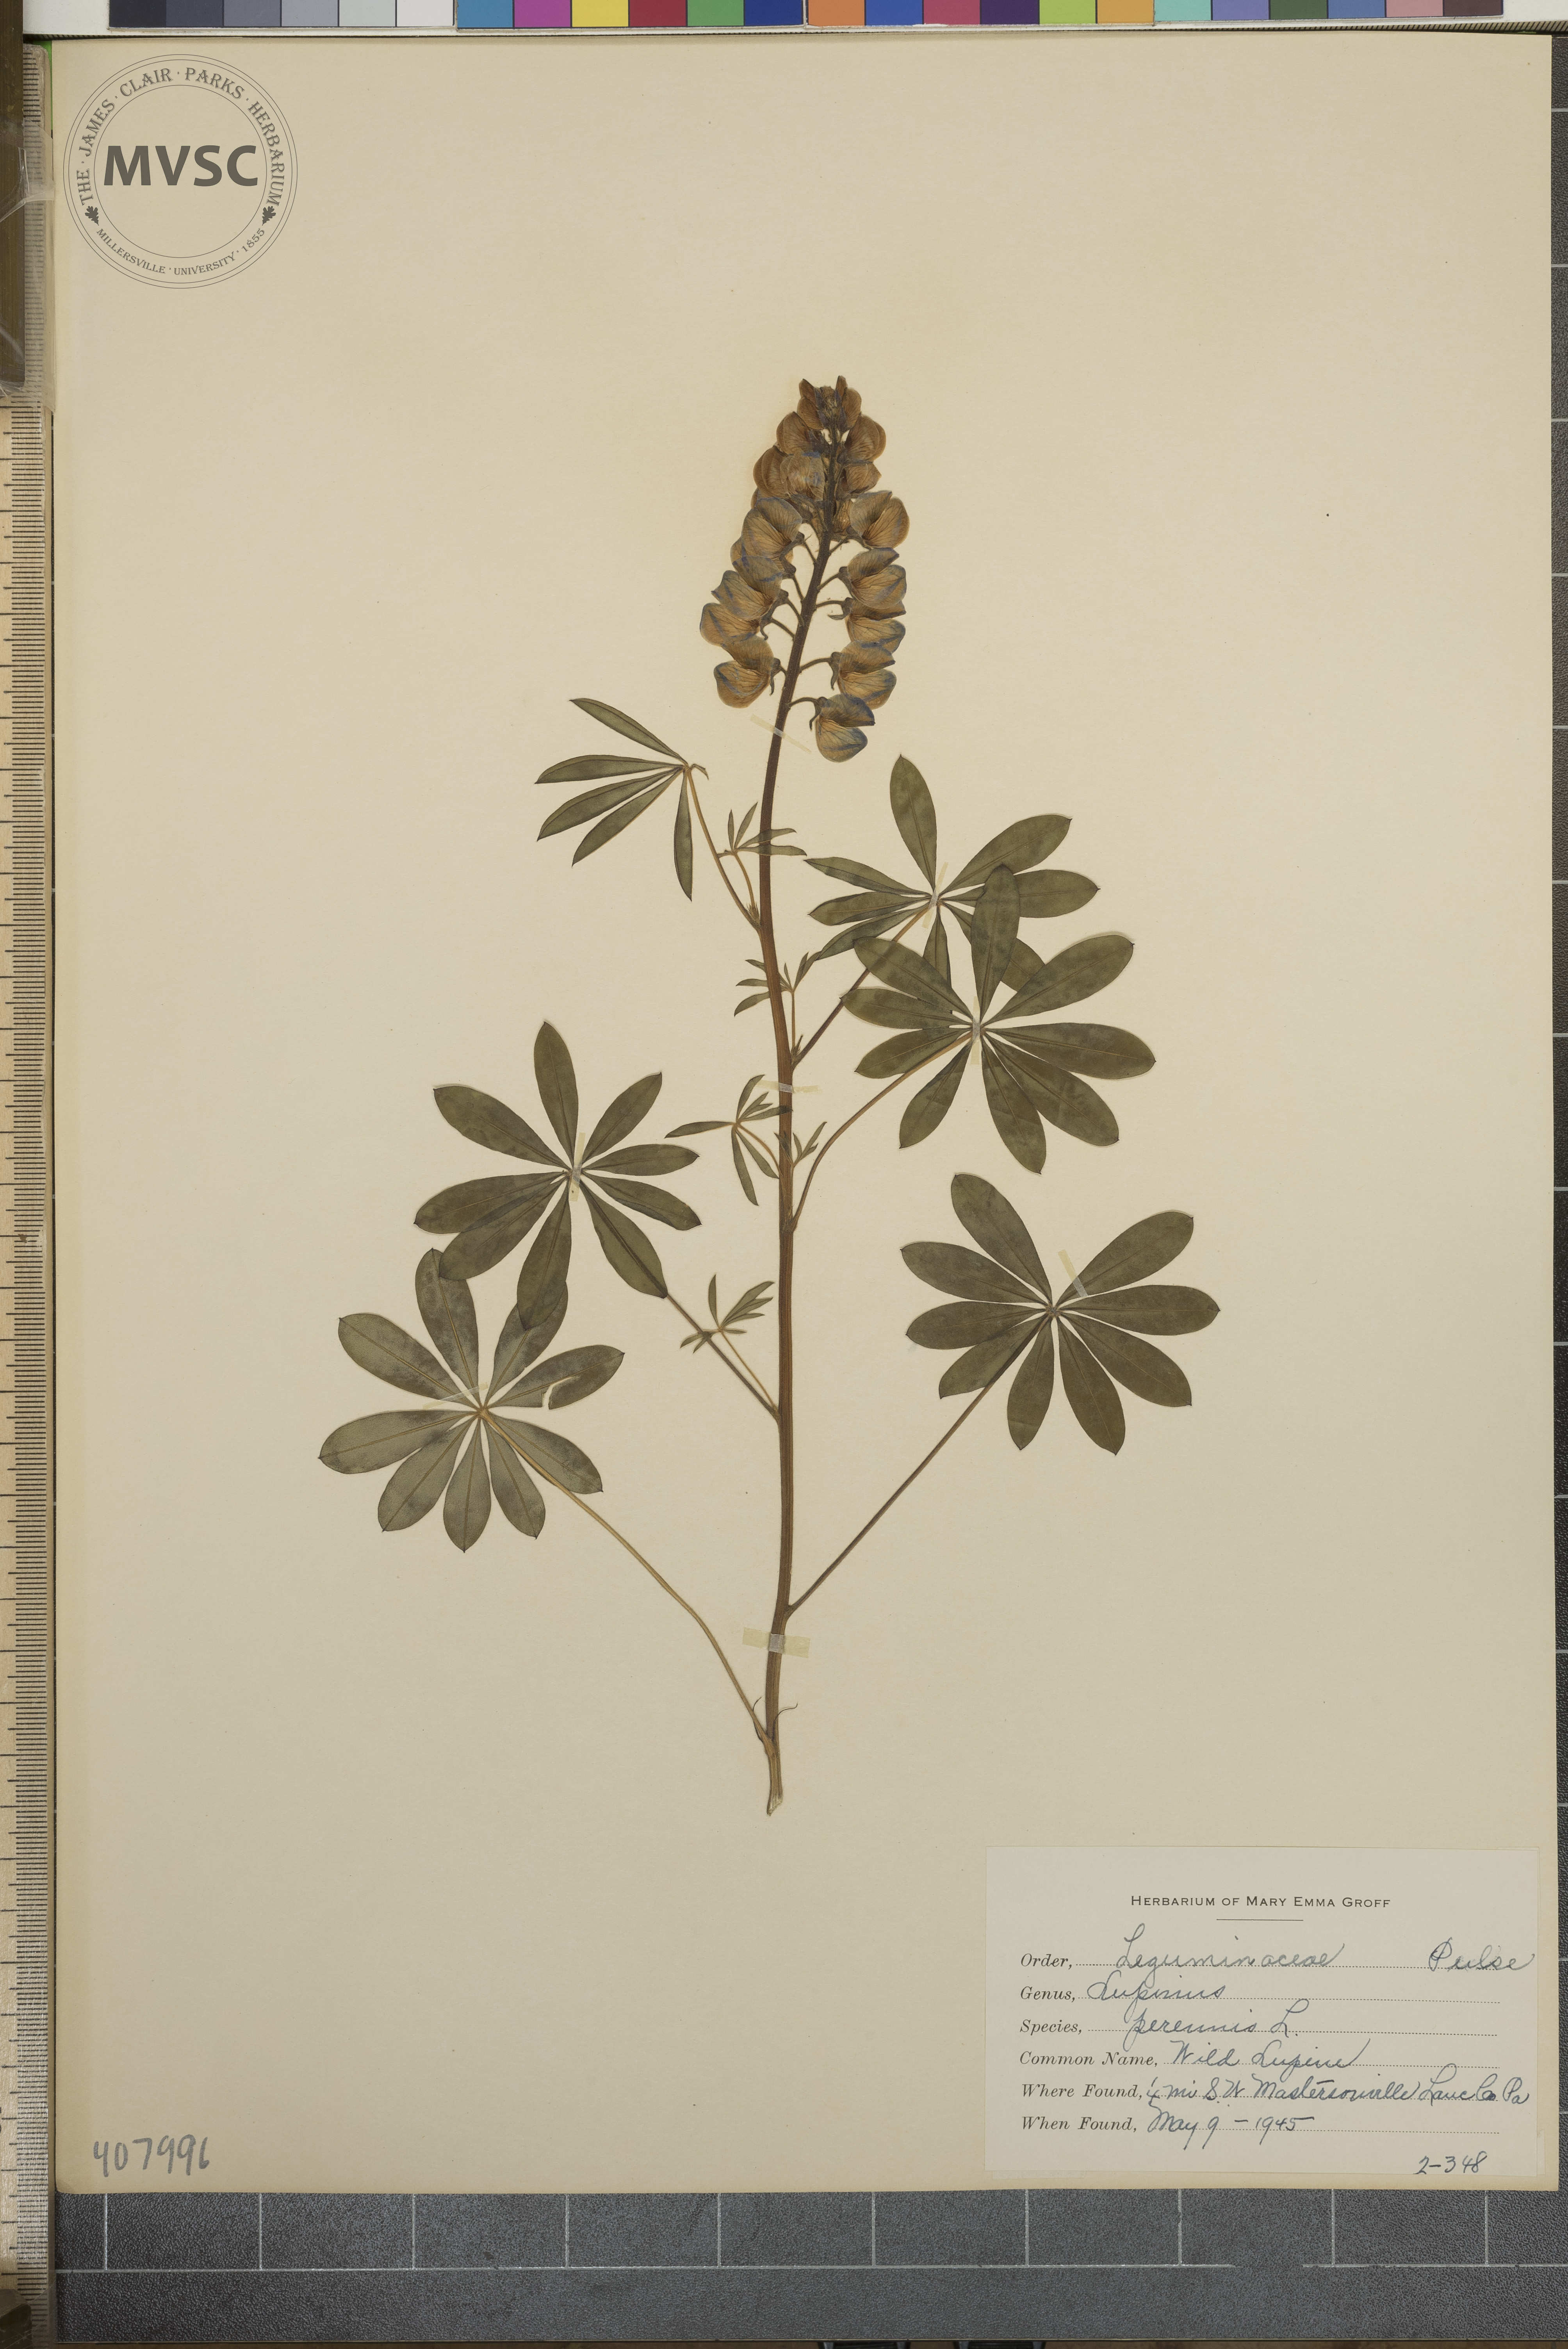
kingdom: Plantae
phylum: Tracheophyta
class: Magnoliopsida
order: Fabales
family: Fabaceae
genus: Lupinus
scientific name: Lupinus perennis
